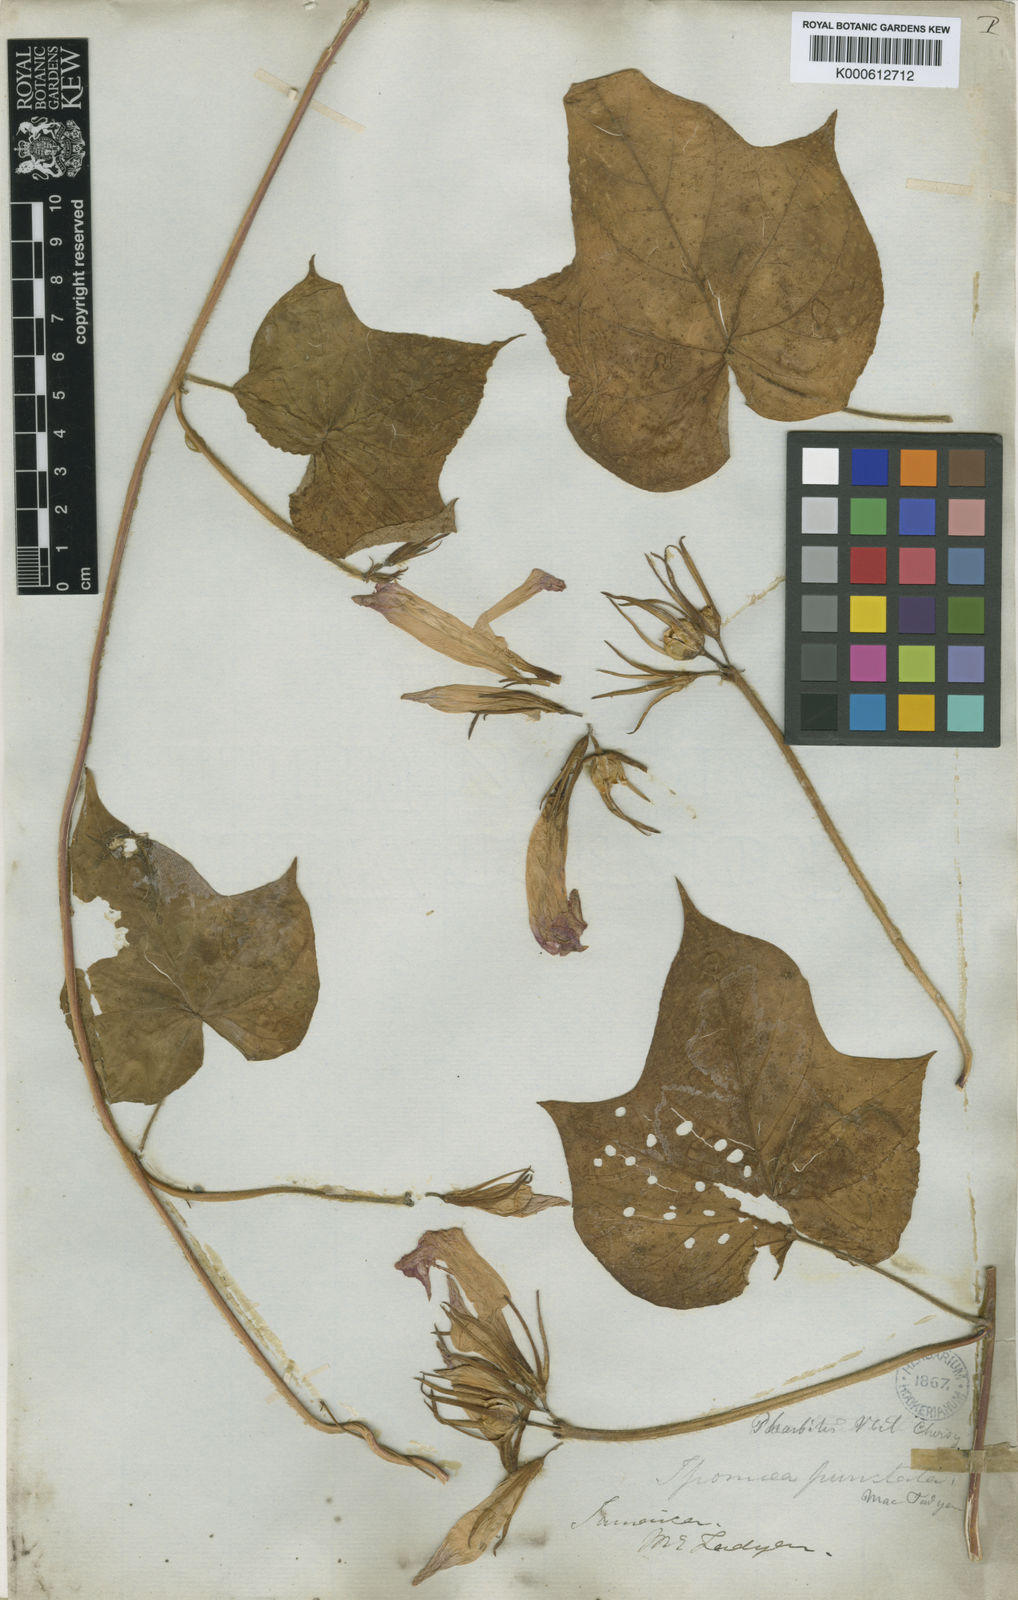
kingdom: Plantae
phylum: Tracheophyta
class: Magnoliopsida
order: Solanales
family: Convolvulaceae
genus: Ipomoea
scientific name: Ipomoea nil
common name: Japanese morning-glory
